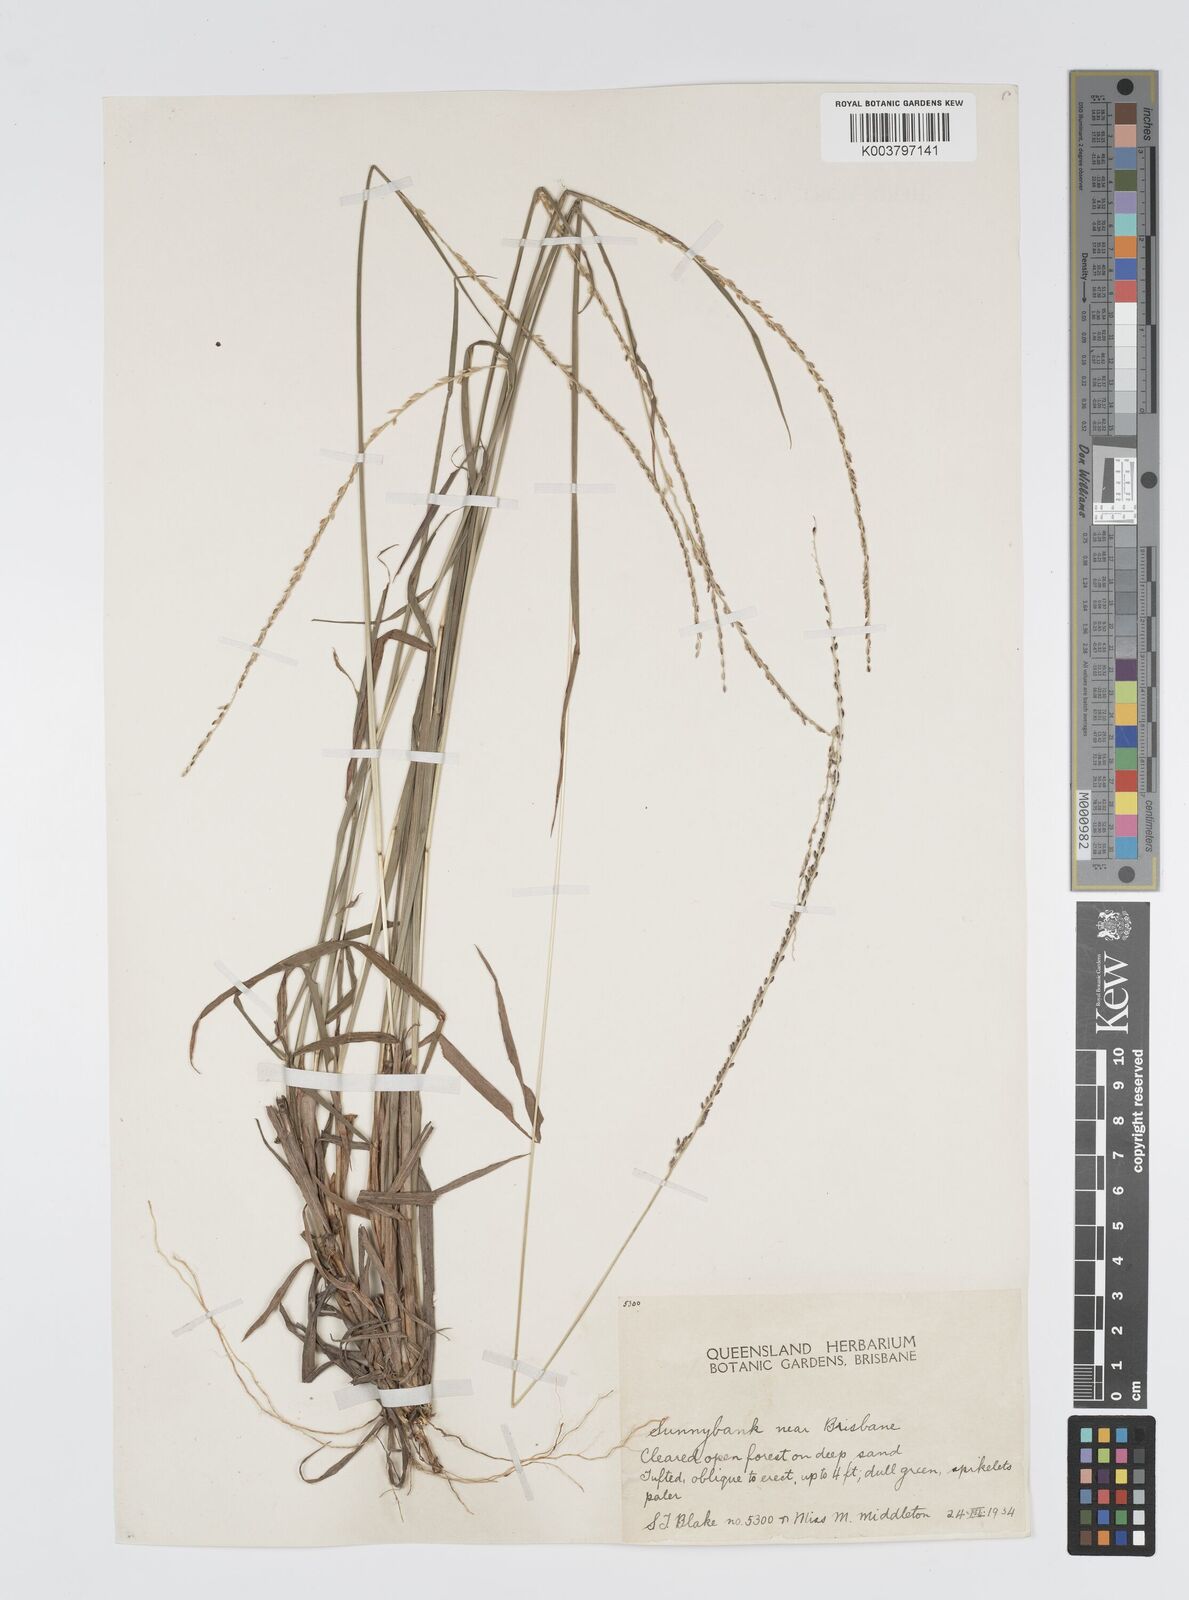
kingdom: Plantae
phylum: Tracheophyta
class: Liliopsida
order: Poales
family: Poaceae
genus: Digitaria
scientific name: Digitaria spec
